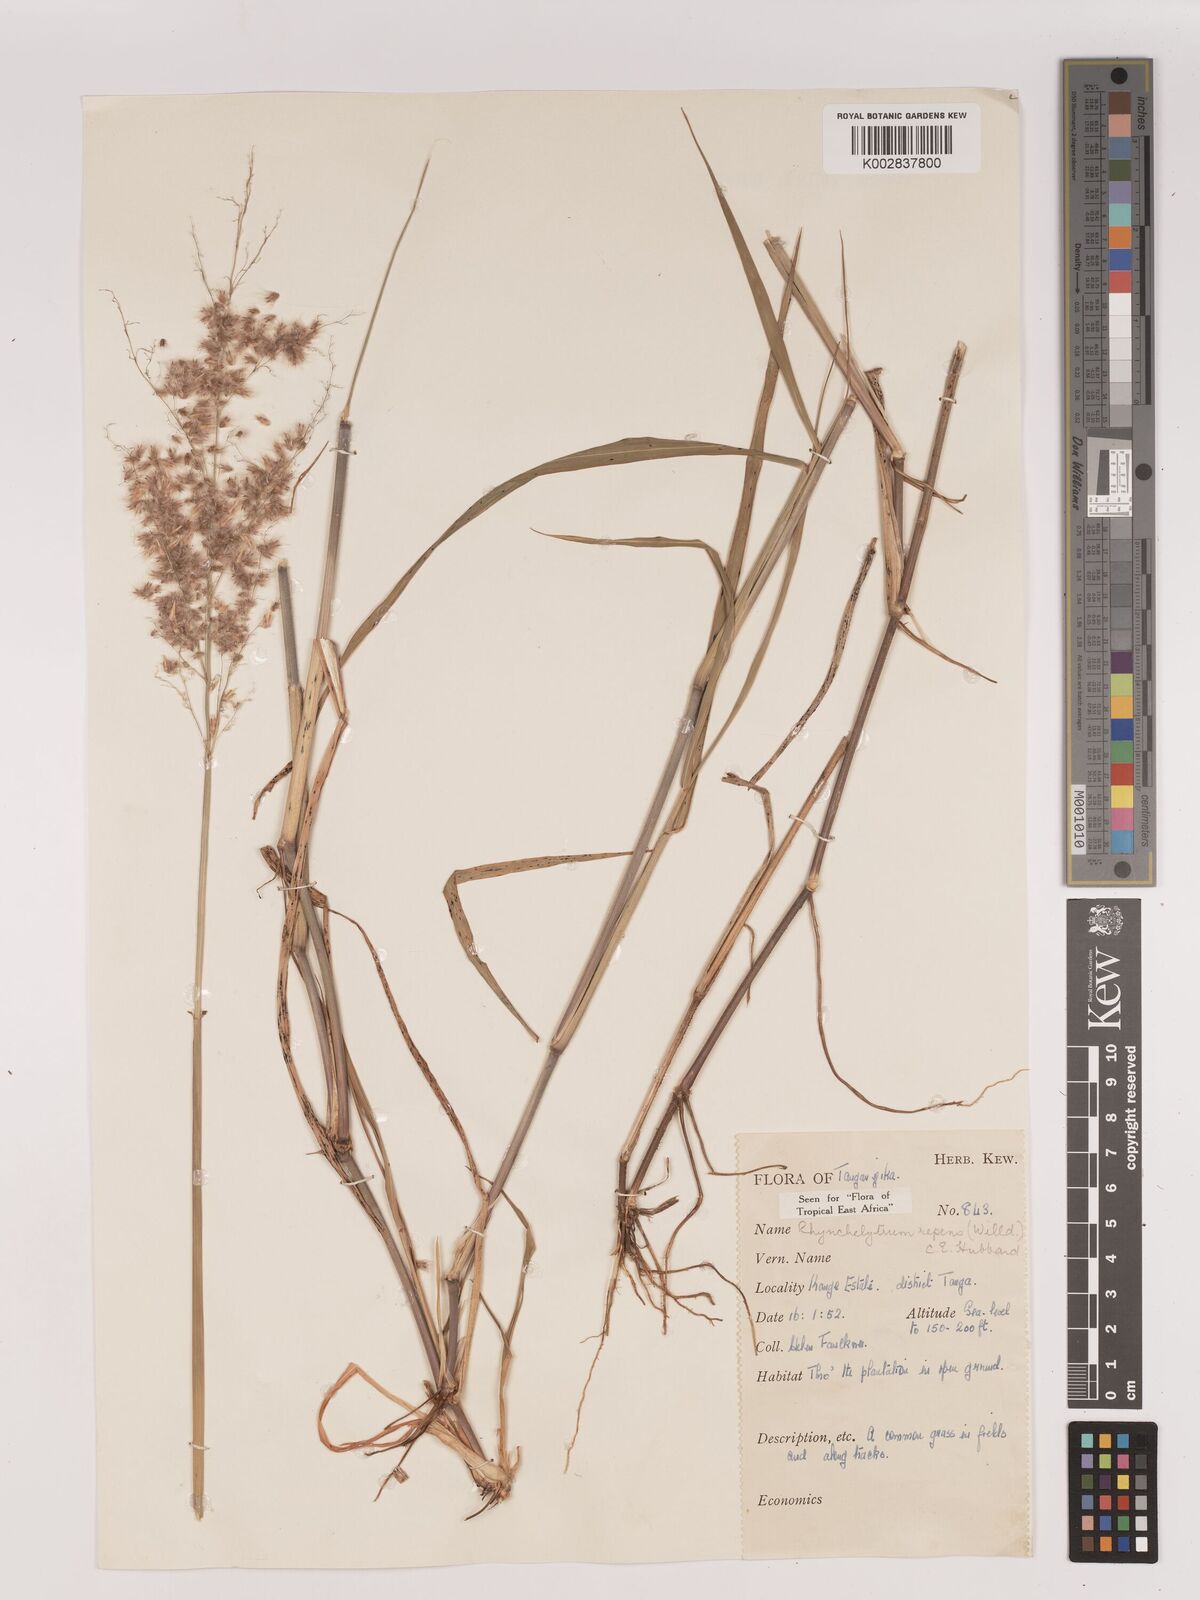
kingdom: Plantae
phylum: Tracheophyta
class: Liliopsida
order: Poales
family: Poaceae
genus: Melinis
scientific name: Melinis repens
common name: Rose natal grass
